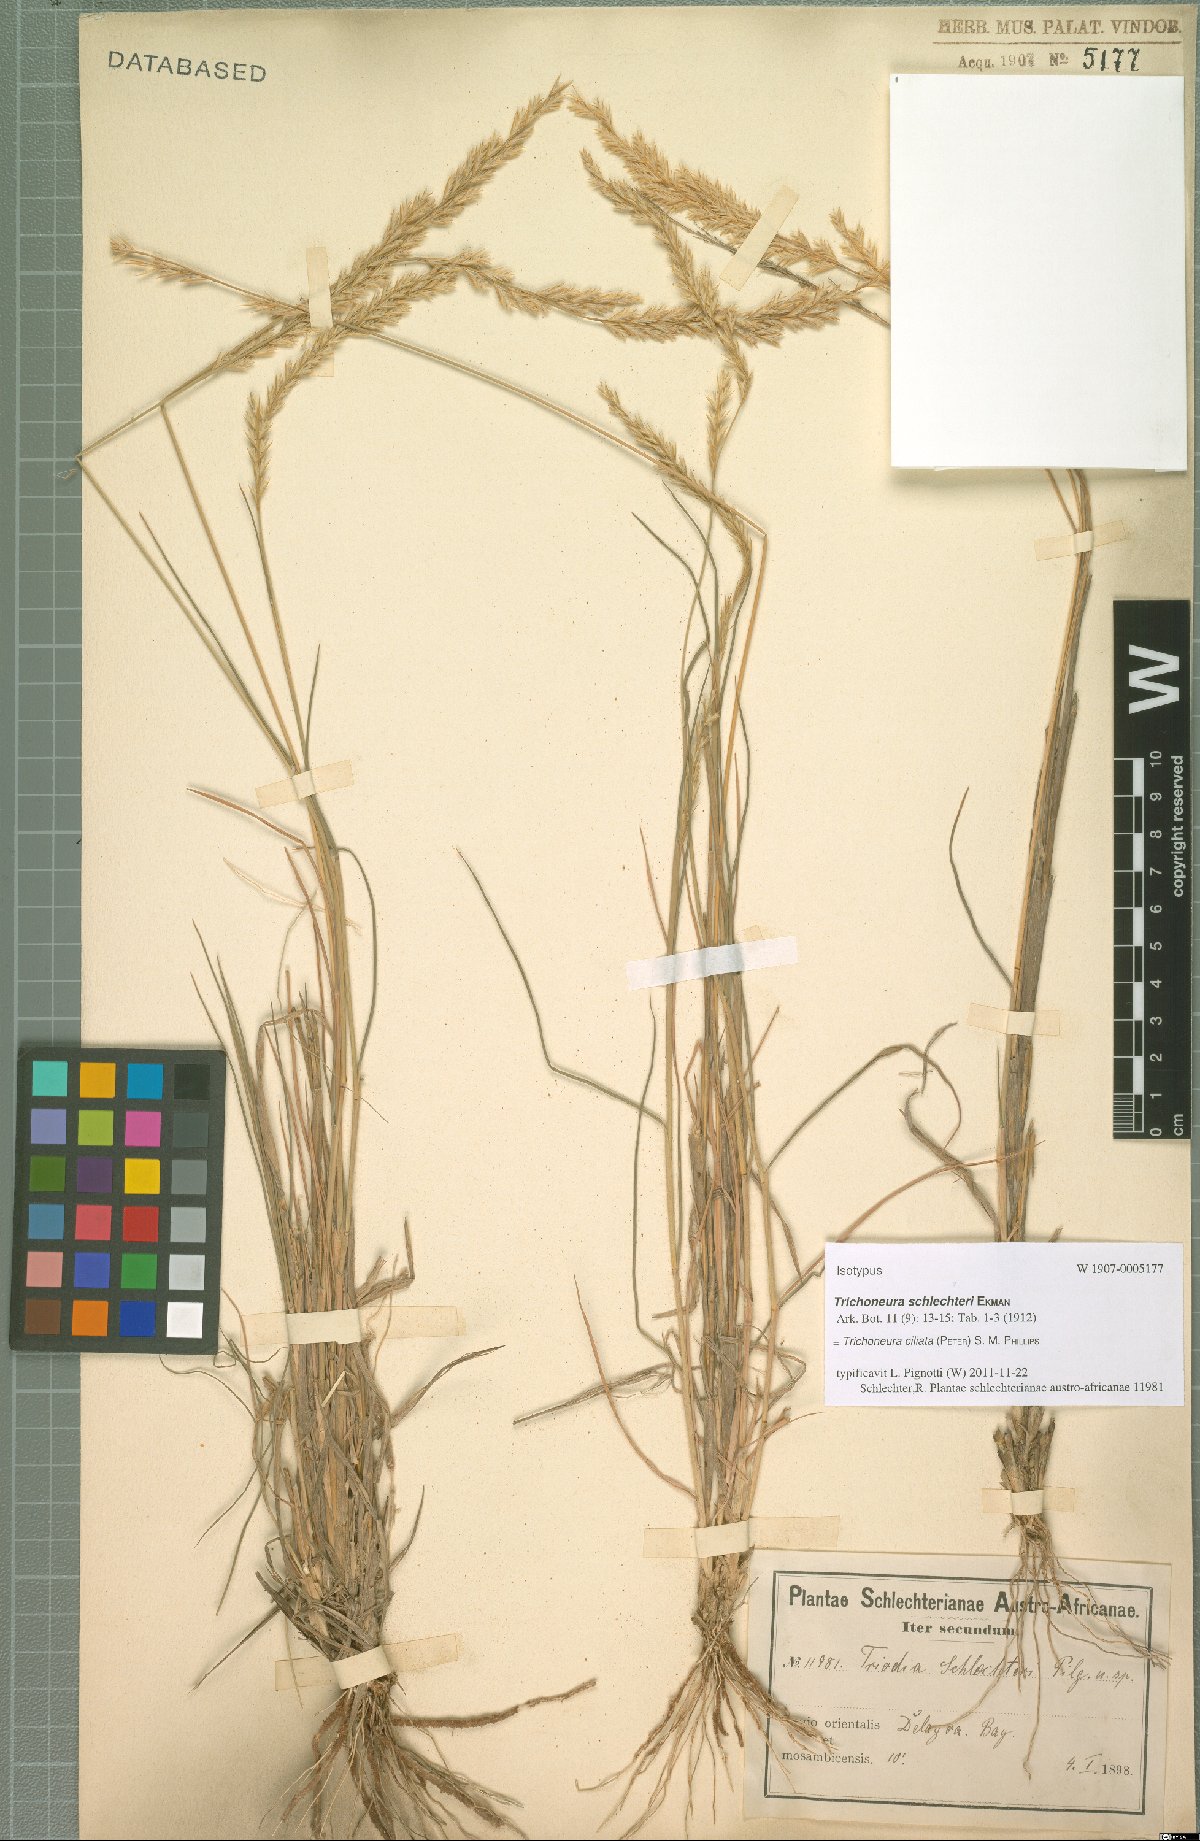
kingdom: Plantae
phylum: Tracheophyta
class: Liliopsida
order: Poales
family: Poaceae
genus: Trichoneura
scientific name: Trichoneura ciliata
